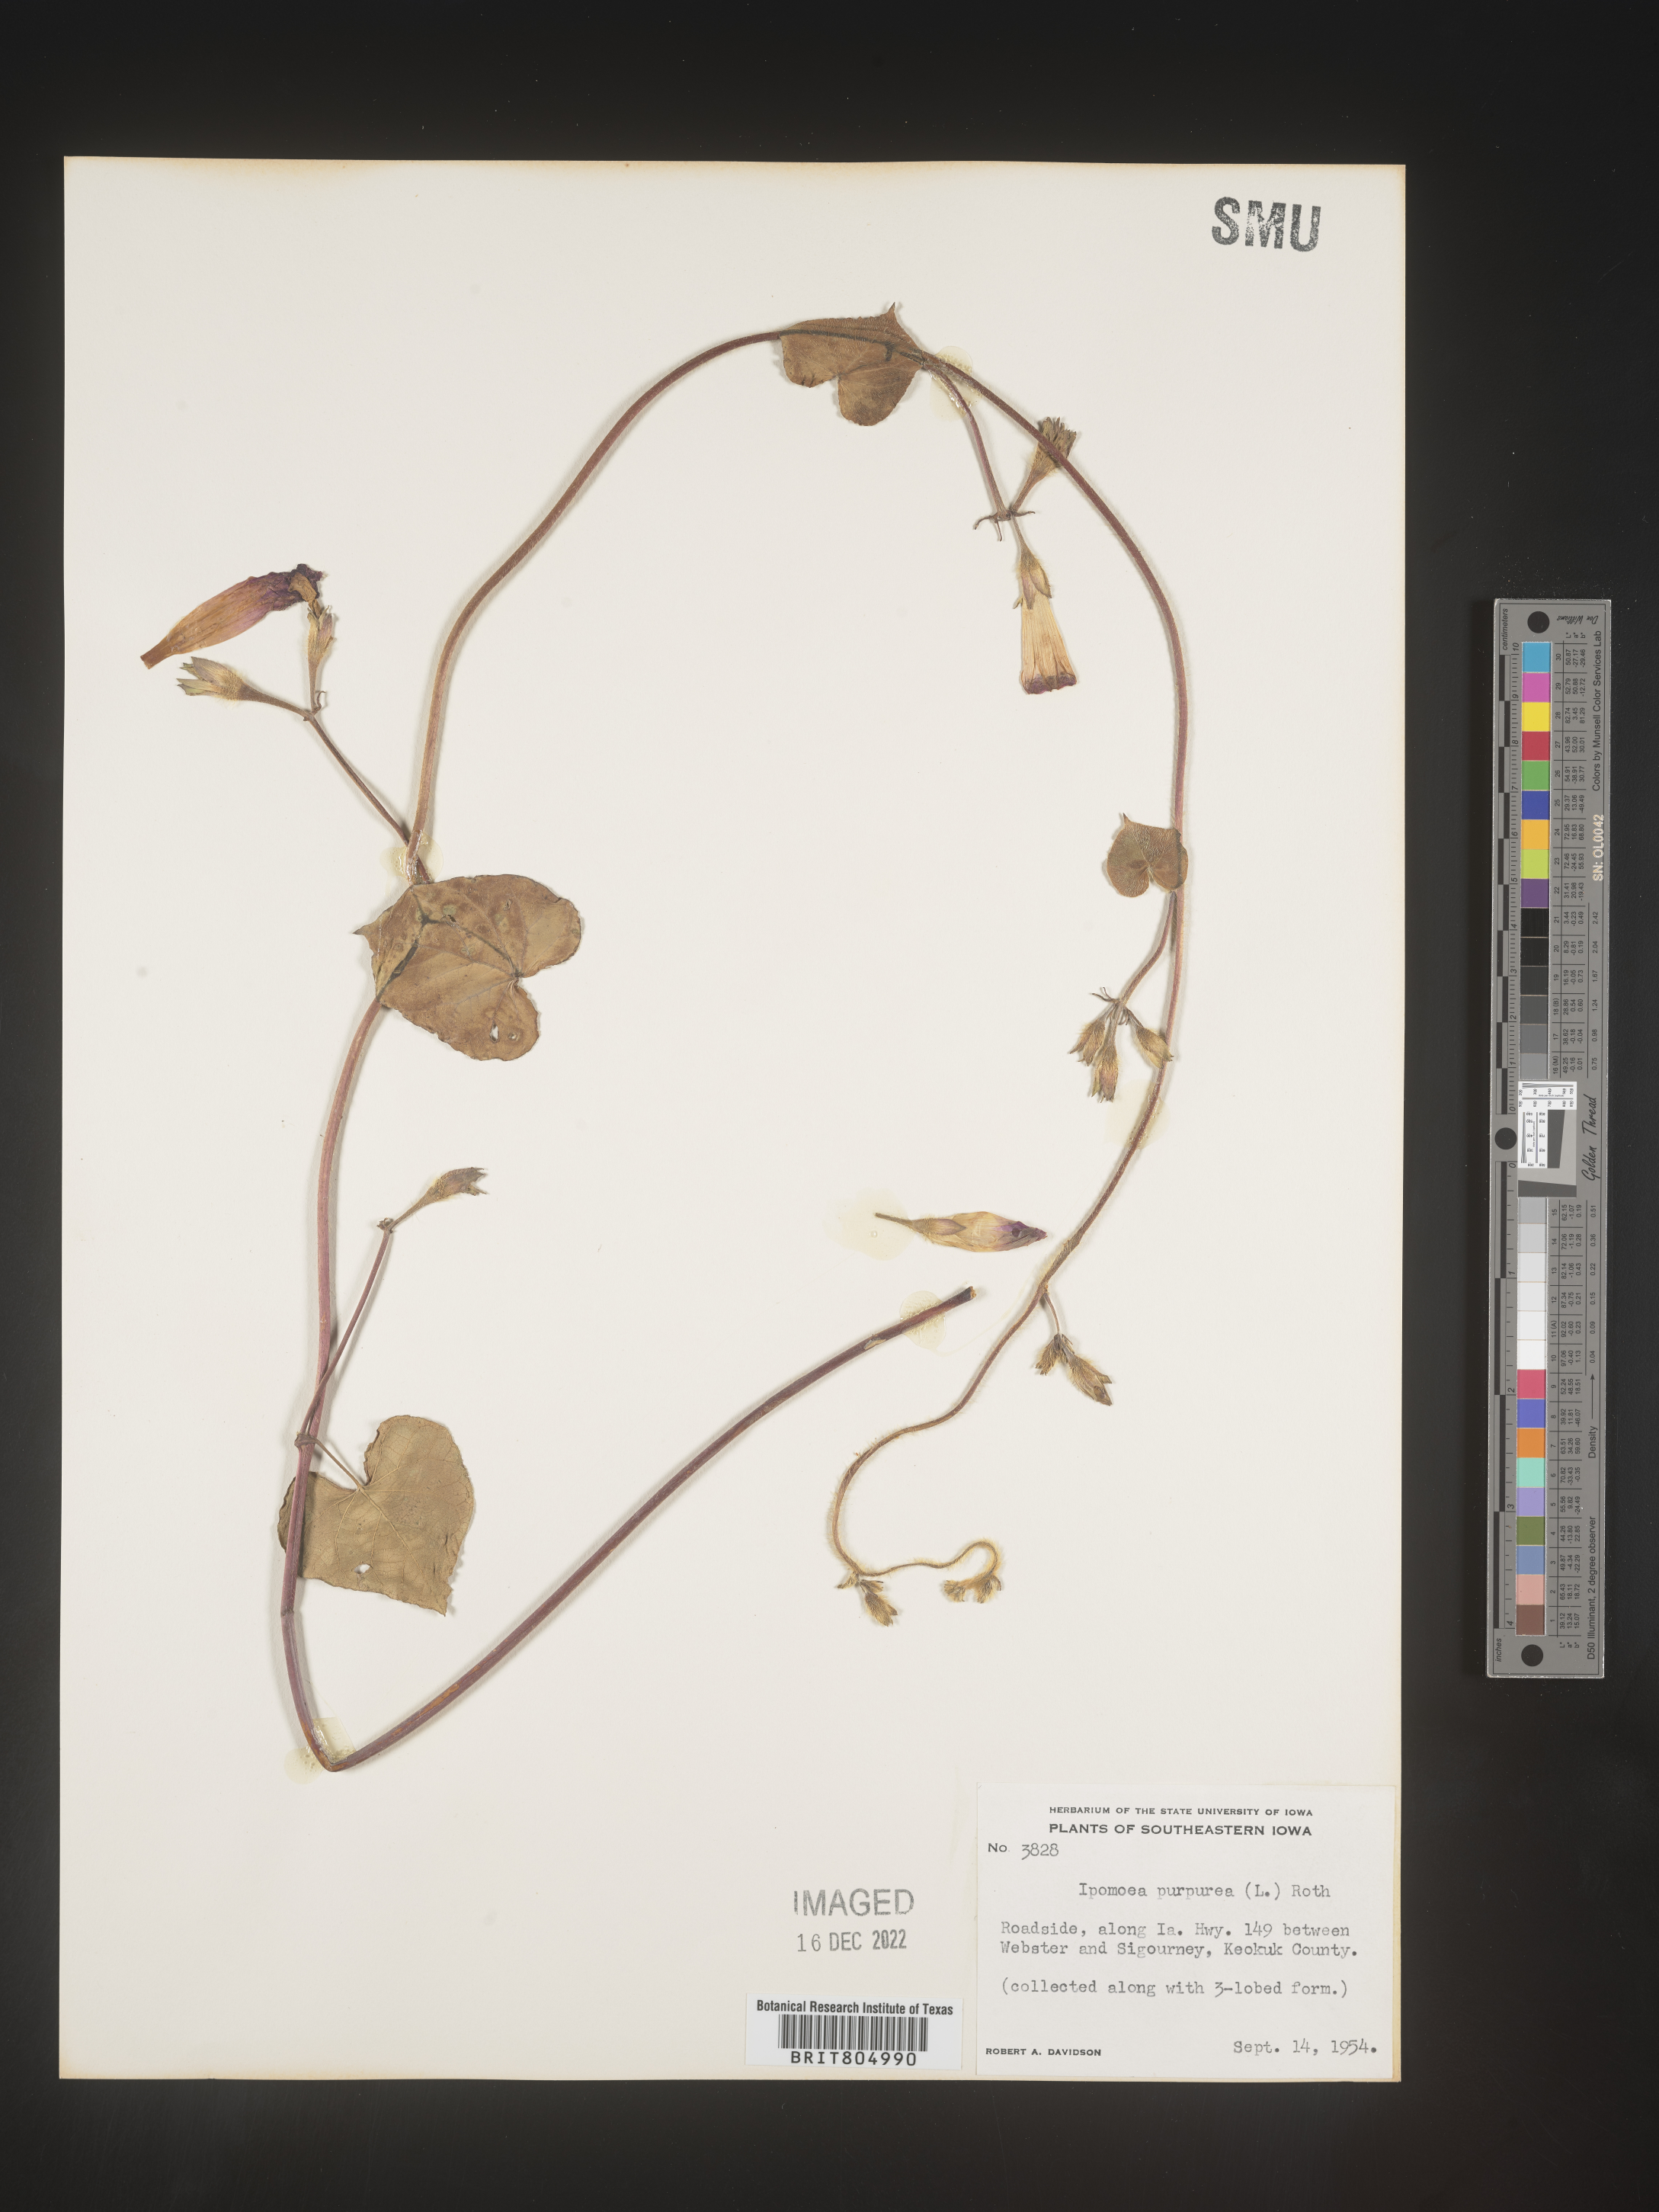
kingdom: Plantae
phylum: Tracheophyta
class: Magnoliopsida
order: Solanales
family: Convolvulaceae
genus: Ipomoea
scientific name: Ipomoea purpurea
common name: Common morning-glory
